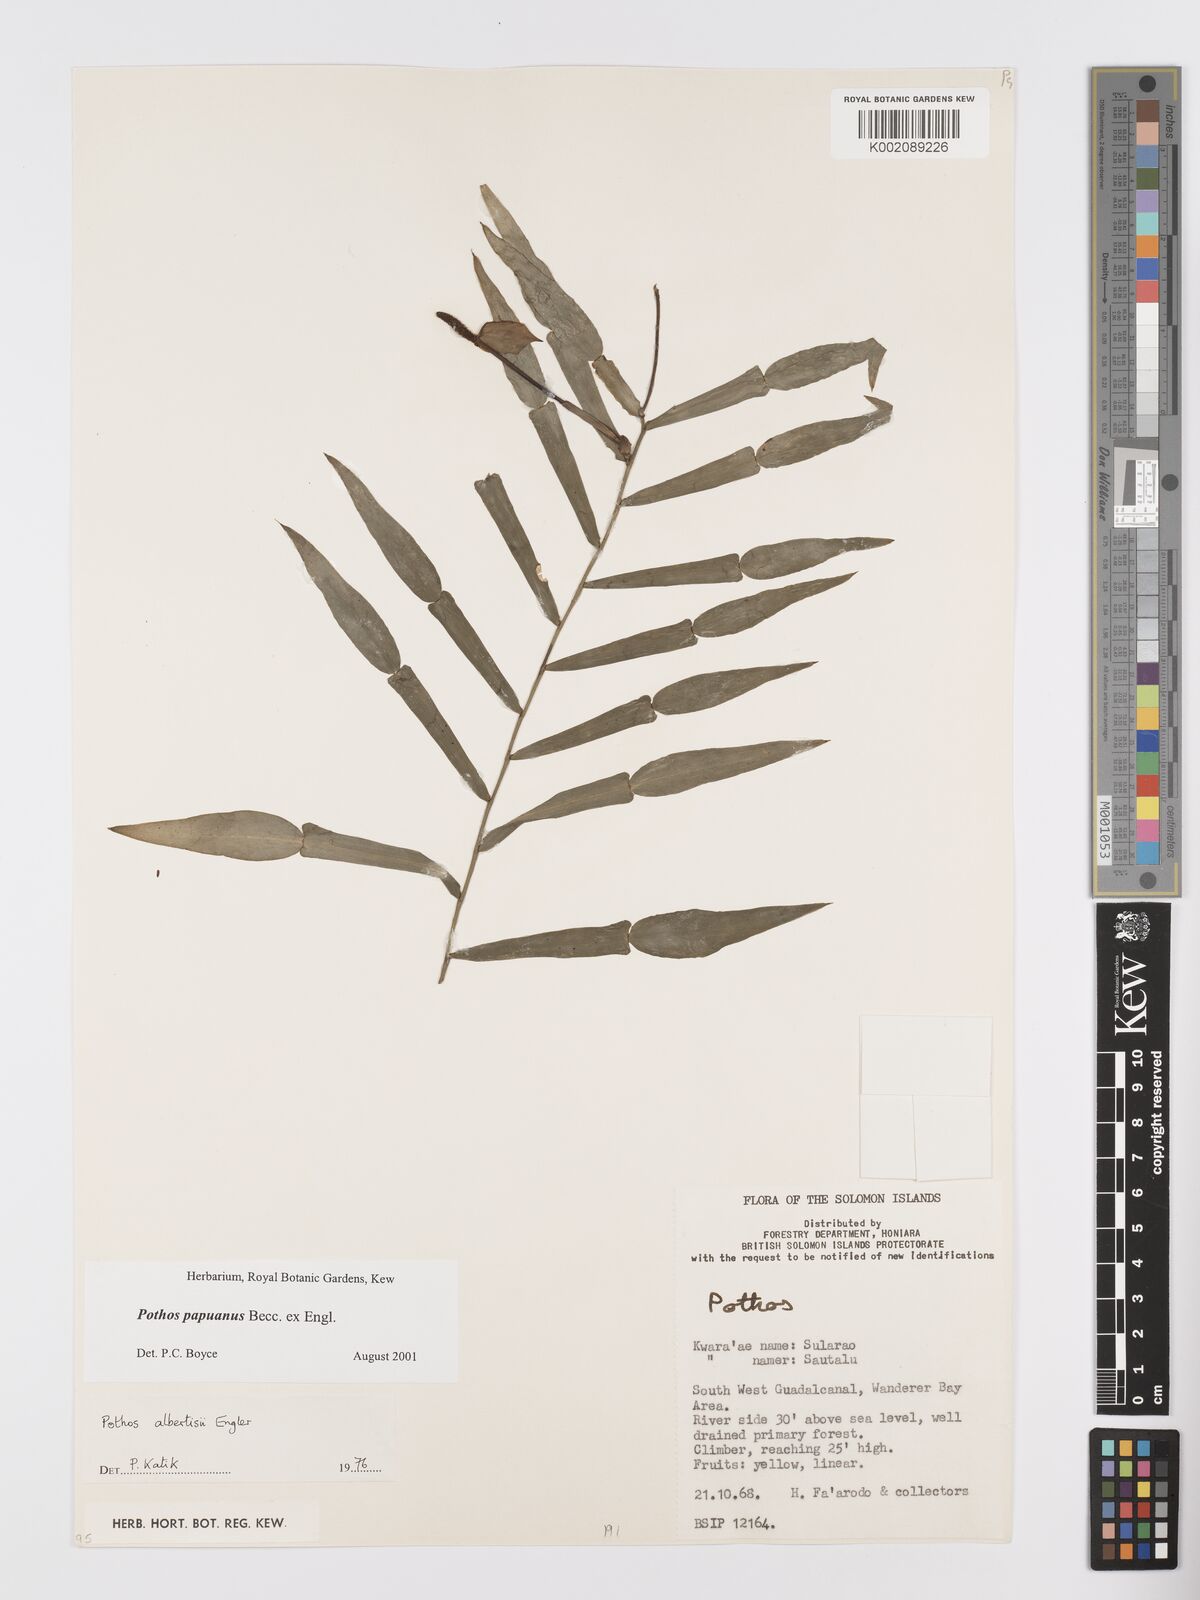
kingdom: Plantae
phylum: Tracheophyta
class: Liliopsida
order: Alismatales
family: Araceae
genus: Pothos
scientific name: Pothos papuanus
